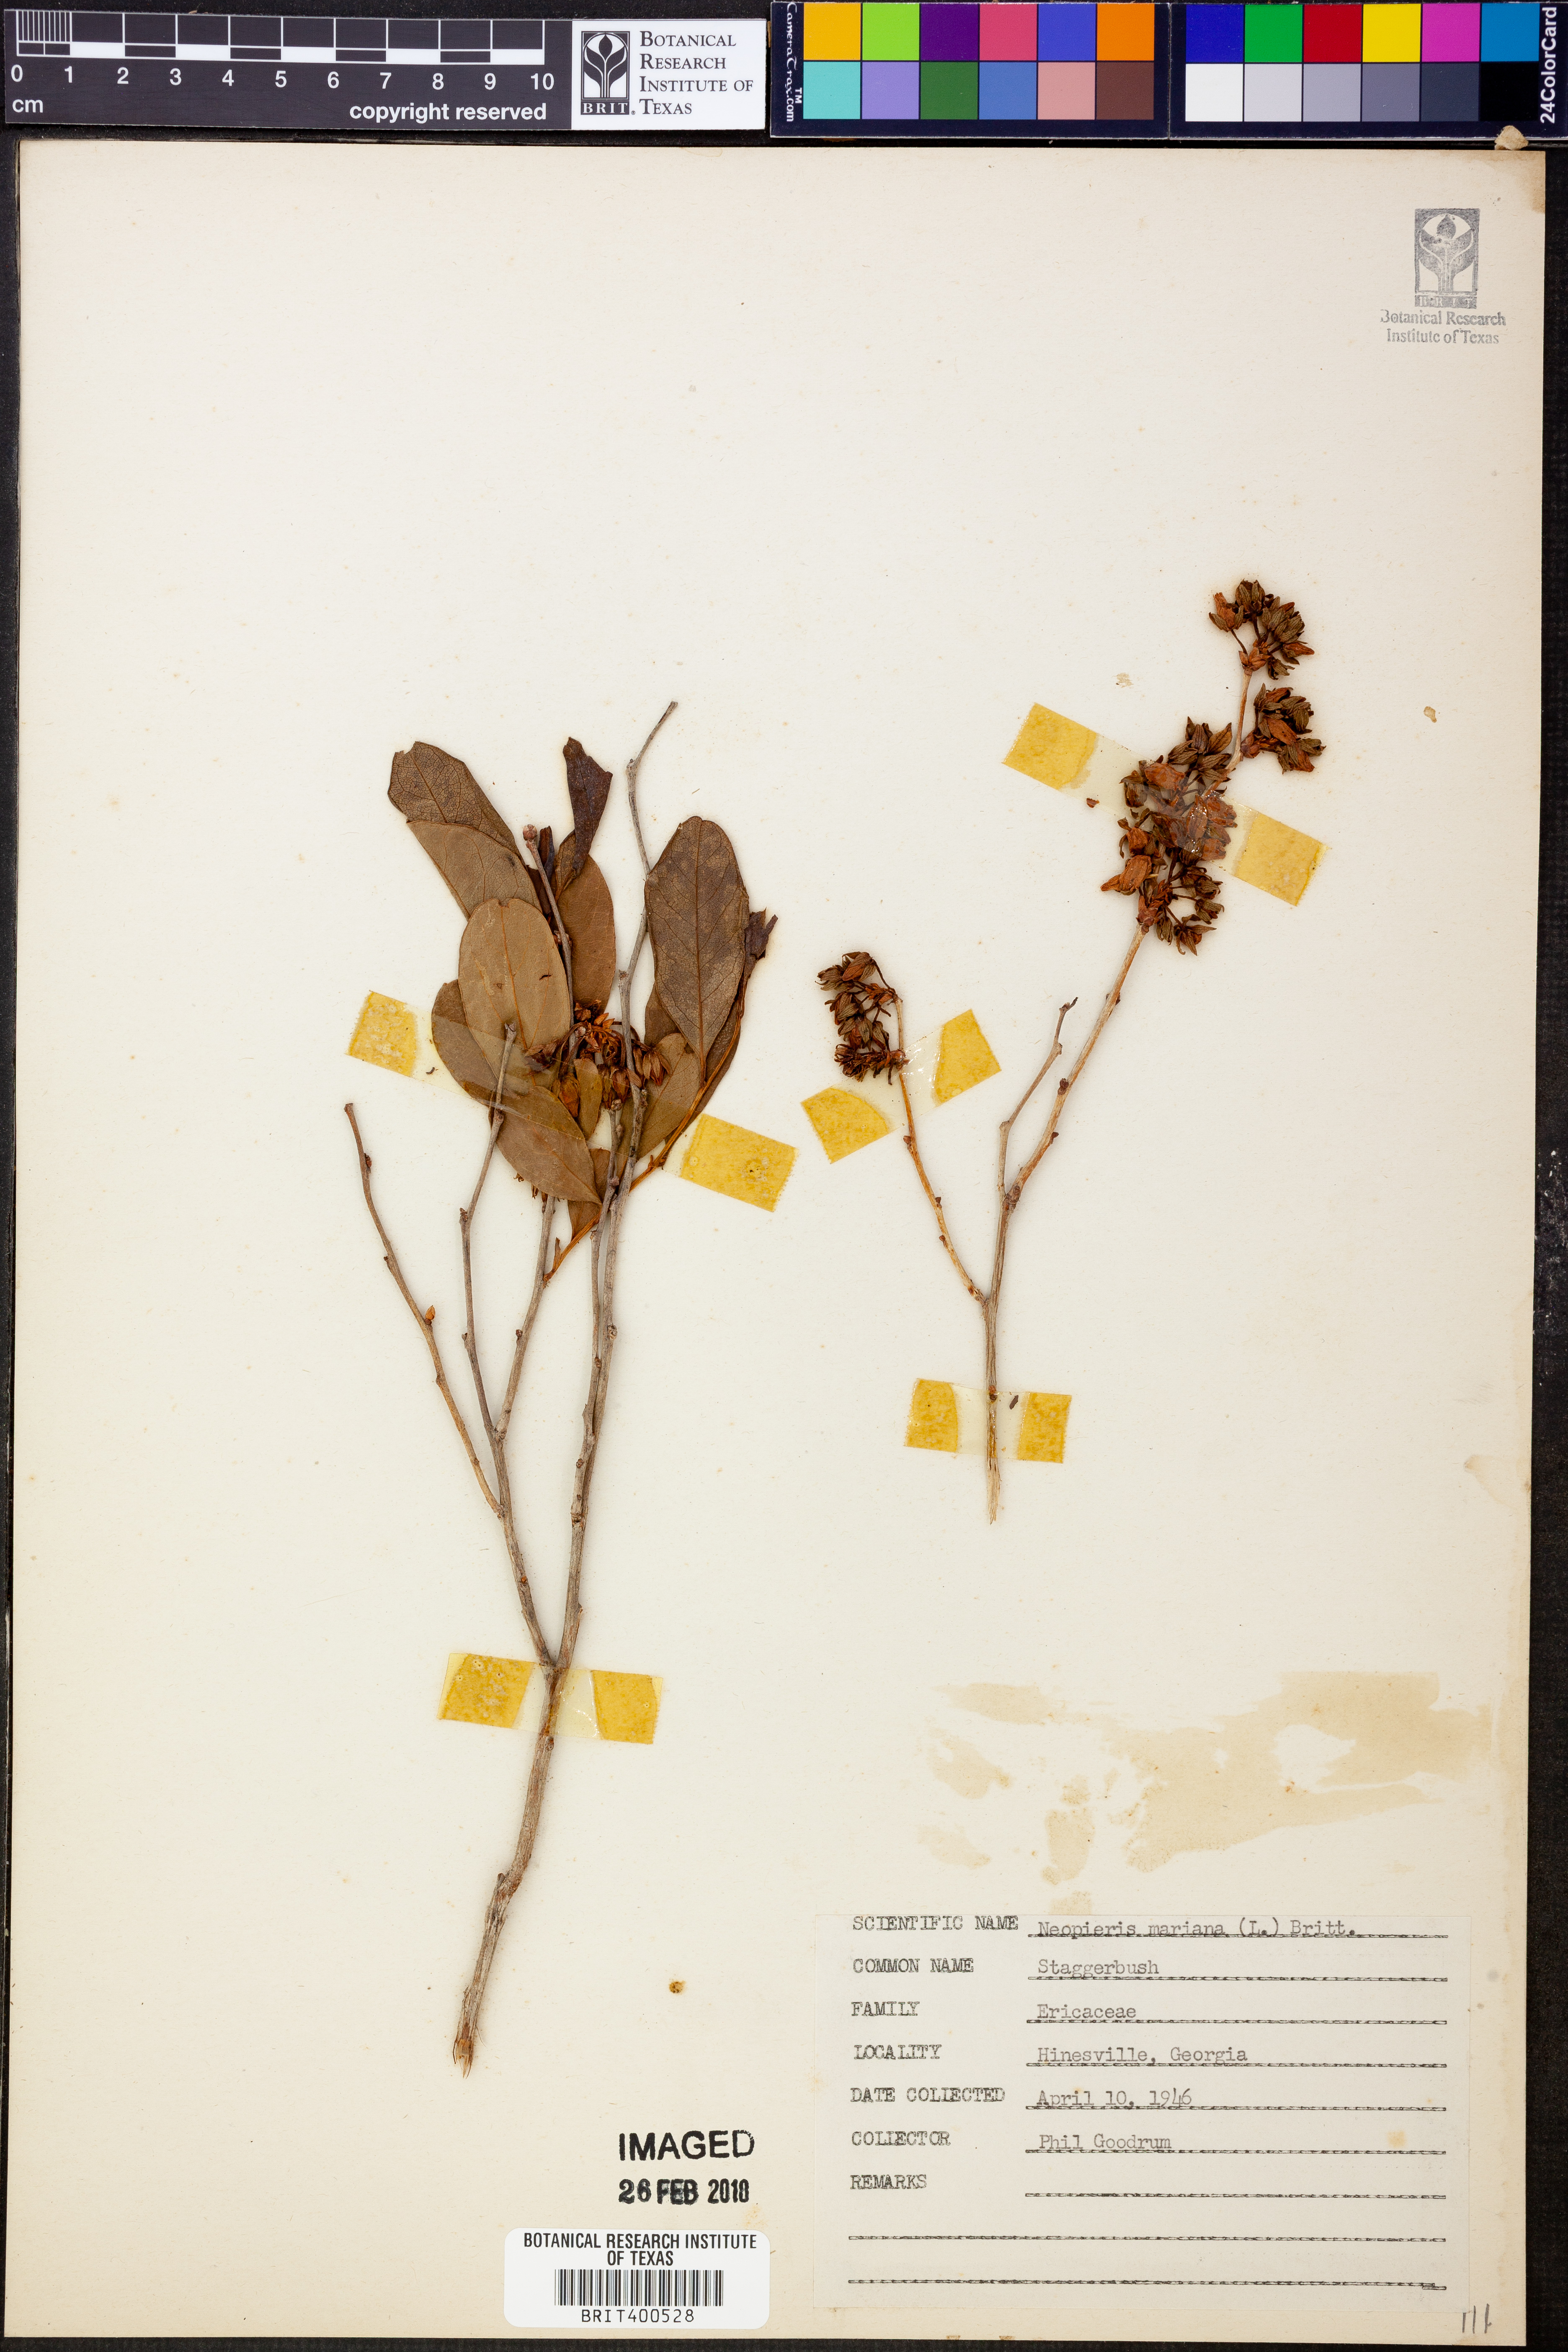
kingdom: Plantae
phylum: Tracheophyta
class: Magnoliopsida
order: Ericales
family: Ericaceae
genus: Lyonia
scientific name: Lyonia mariana
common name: Staggerbush
